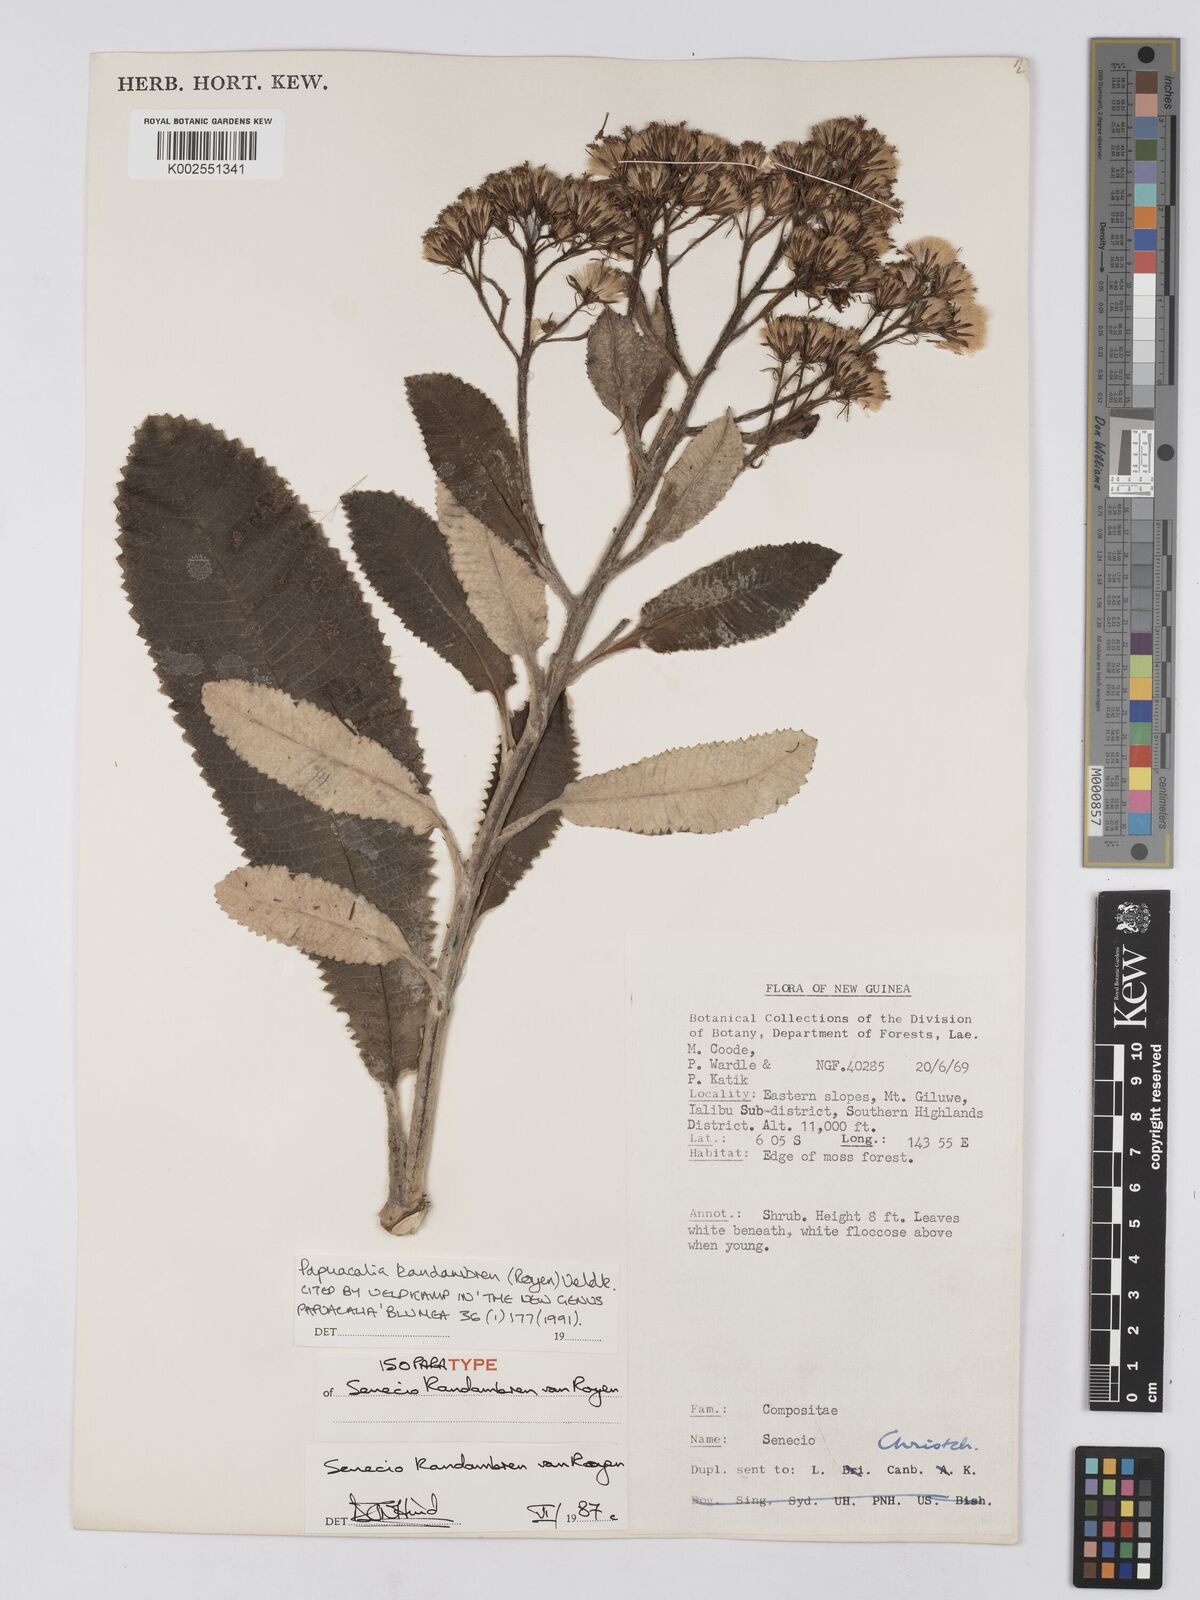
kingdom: Plantae
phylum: Tracheophyta
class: Magnoliopsida
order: Asterales
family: Asteraceae
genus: Papuacalia
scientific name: Papuacalia kandambren
